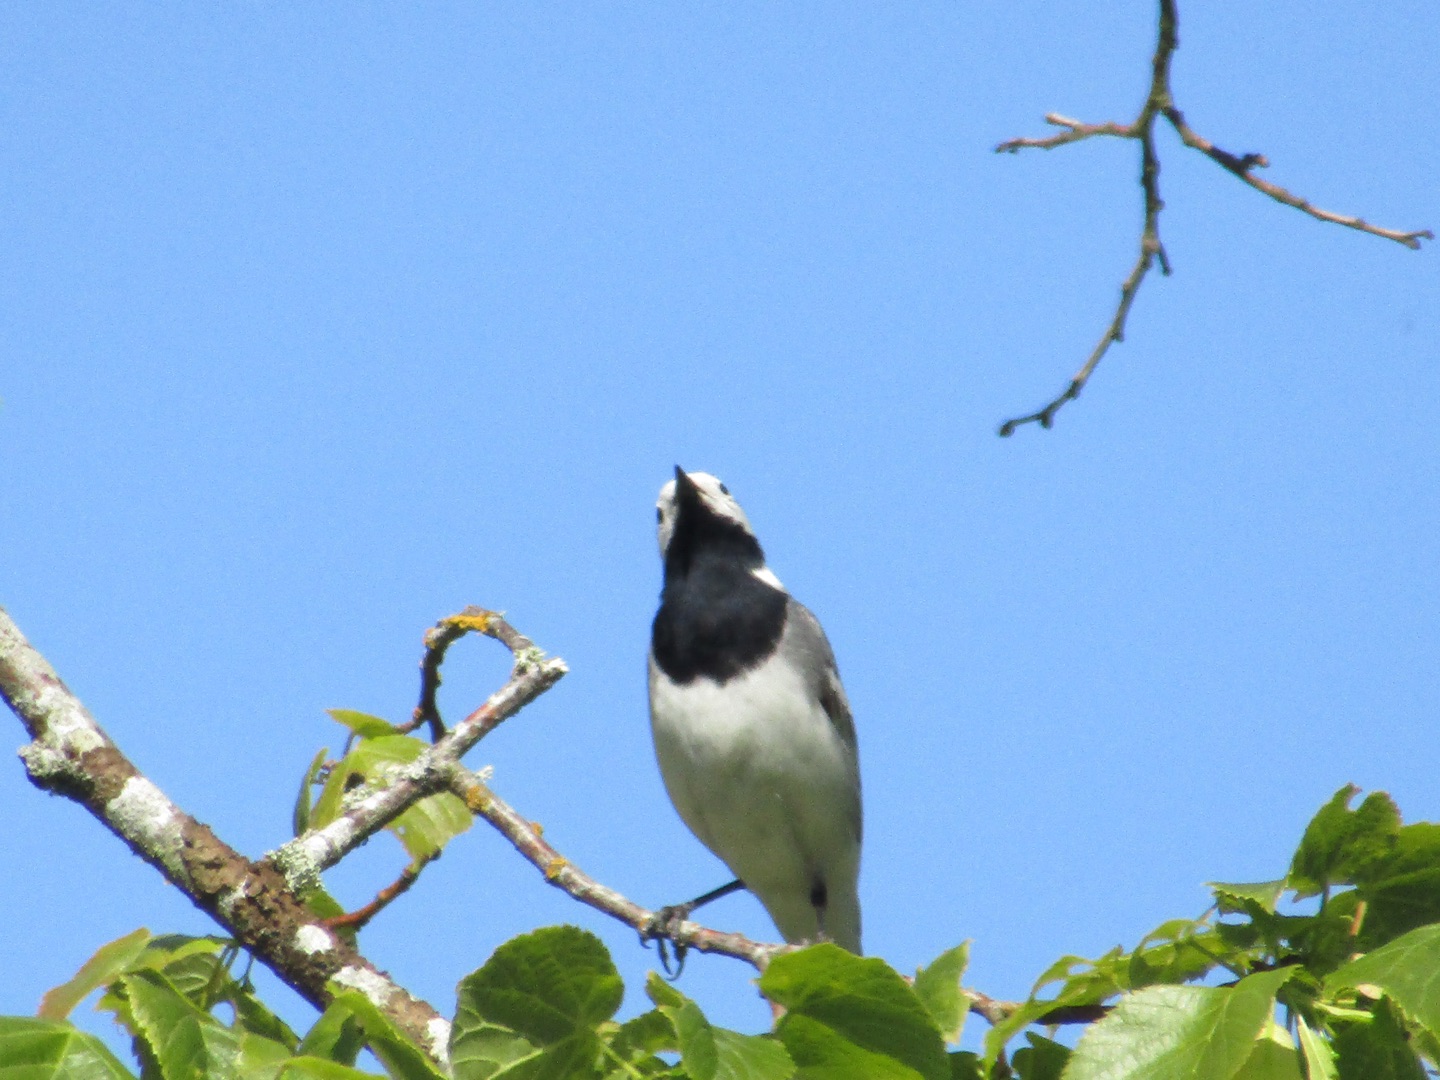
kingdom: Animalia
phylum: Chordata
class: Aves
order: Passeriformes
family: Motacillidae
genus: Motacilla
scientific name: Motacilla alba
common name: Hvid vipstjert
